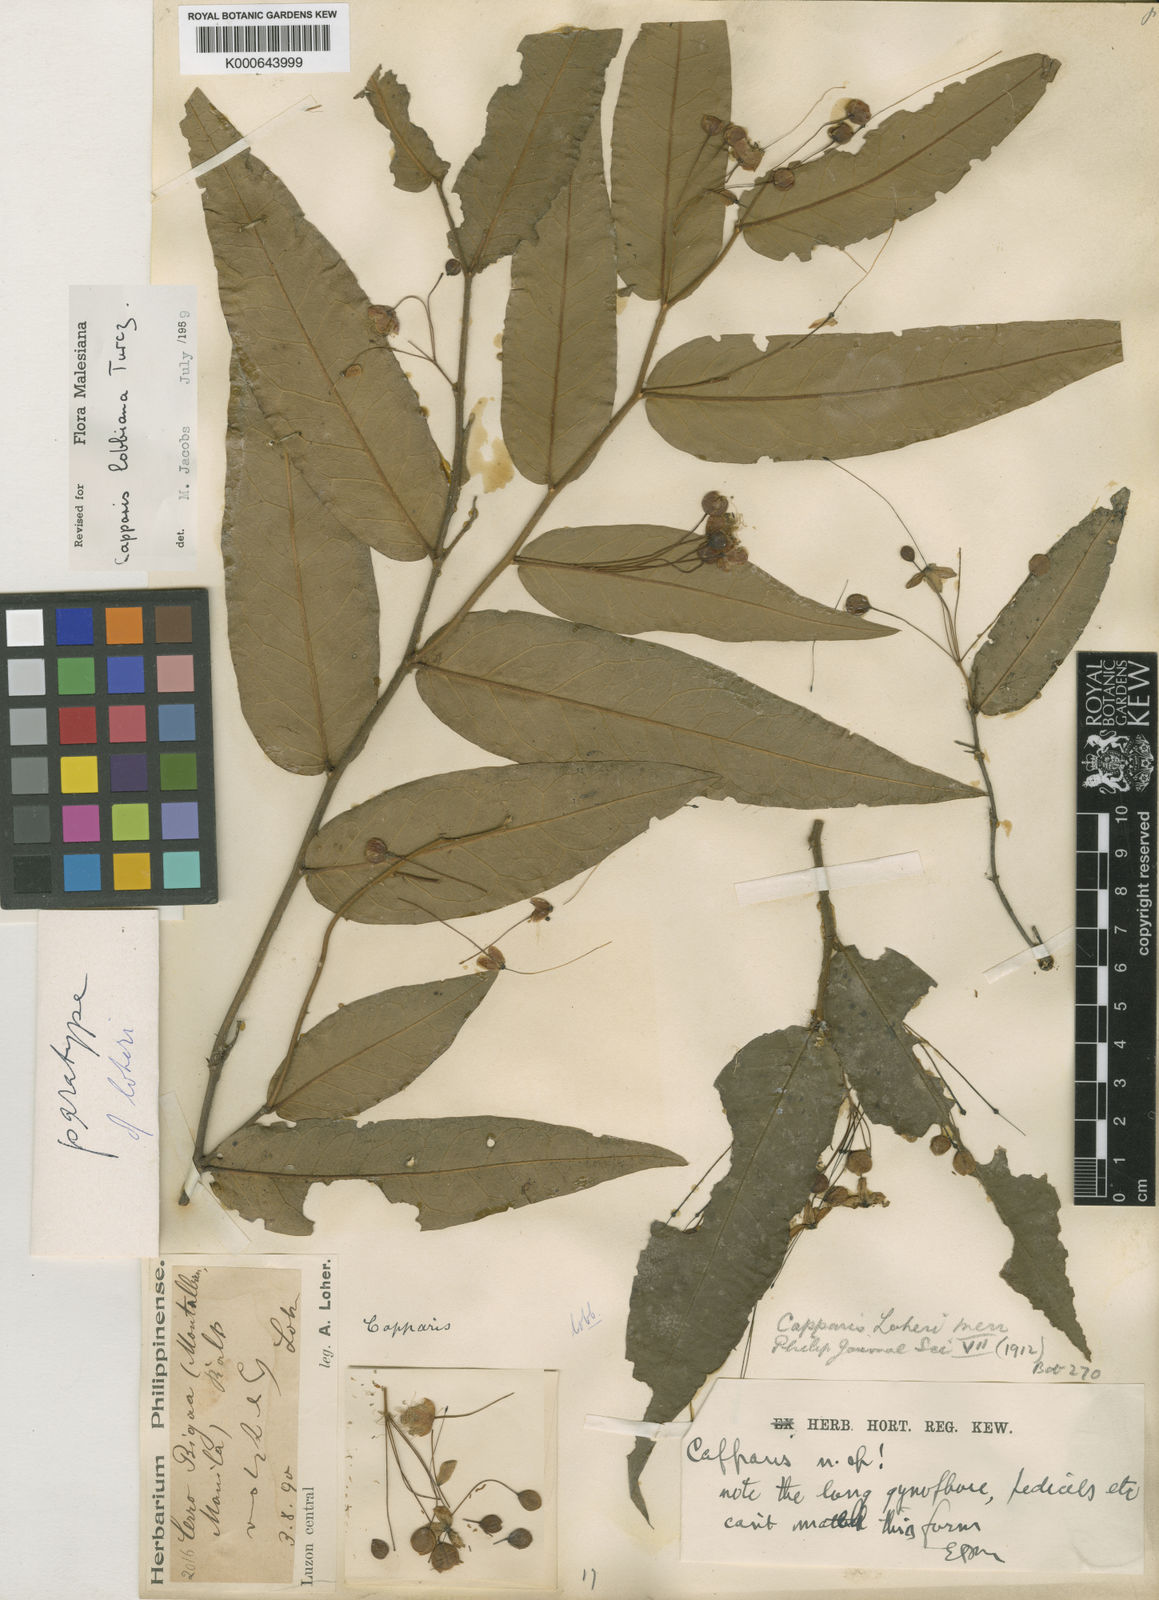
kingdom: Plantae
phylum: Tracheophyta
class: Magnoliopsida
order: Brassicales
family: Capparaceae
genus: Capparis
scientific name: Capparis lobbiana
